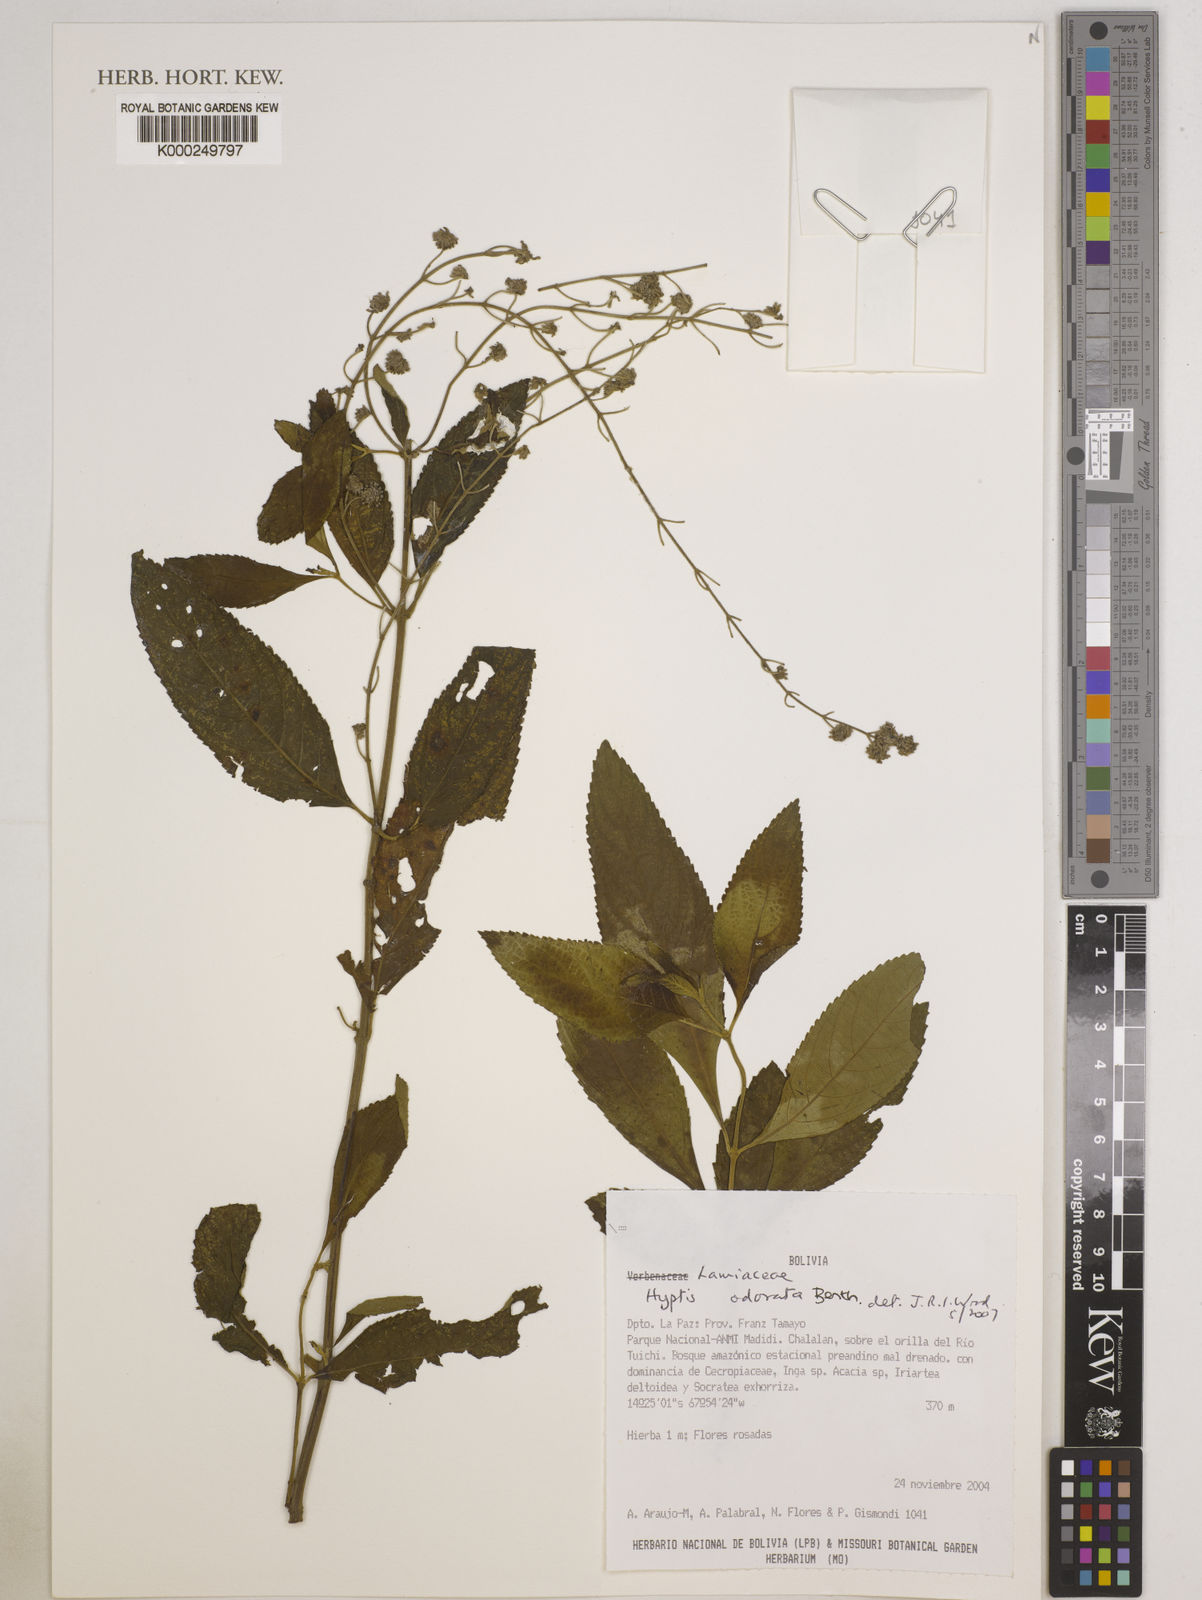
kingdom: Plantae
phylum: Tracheophyta
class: Magnoliopsida
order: Lamiales
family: Lamiaceae
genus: Hyptis
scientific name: Hyptis odorata
